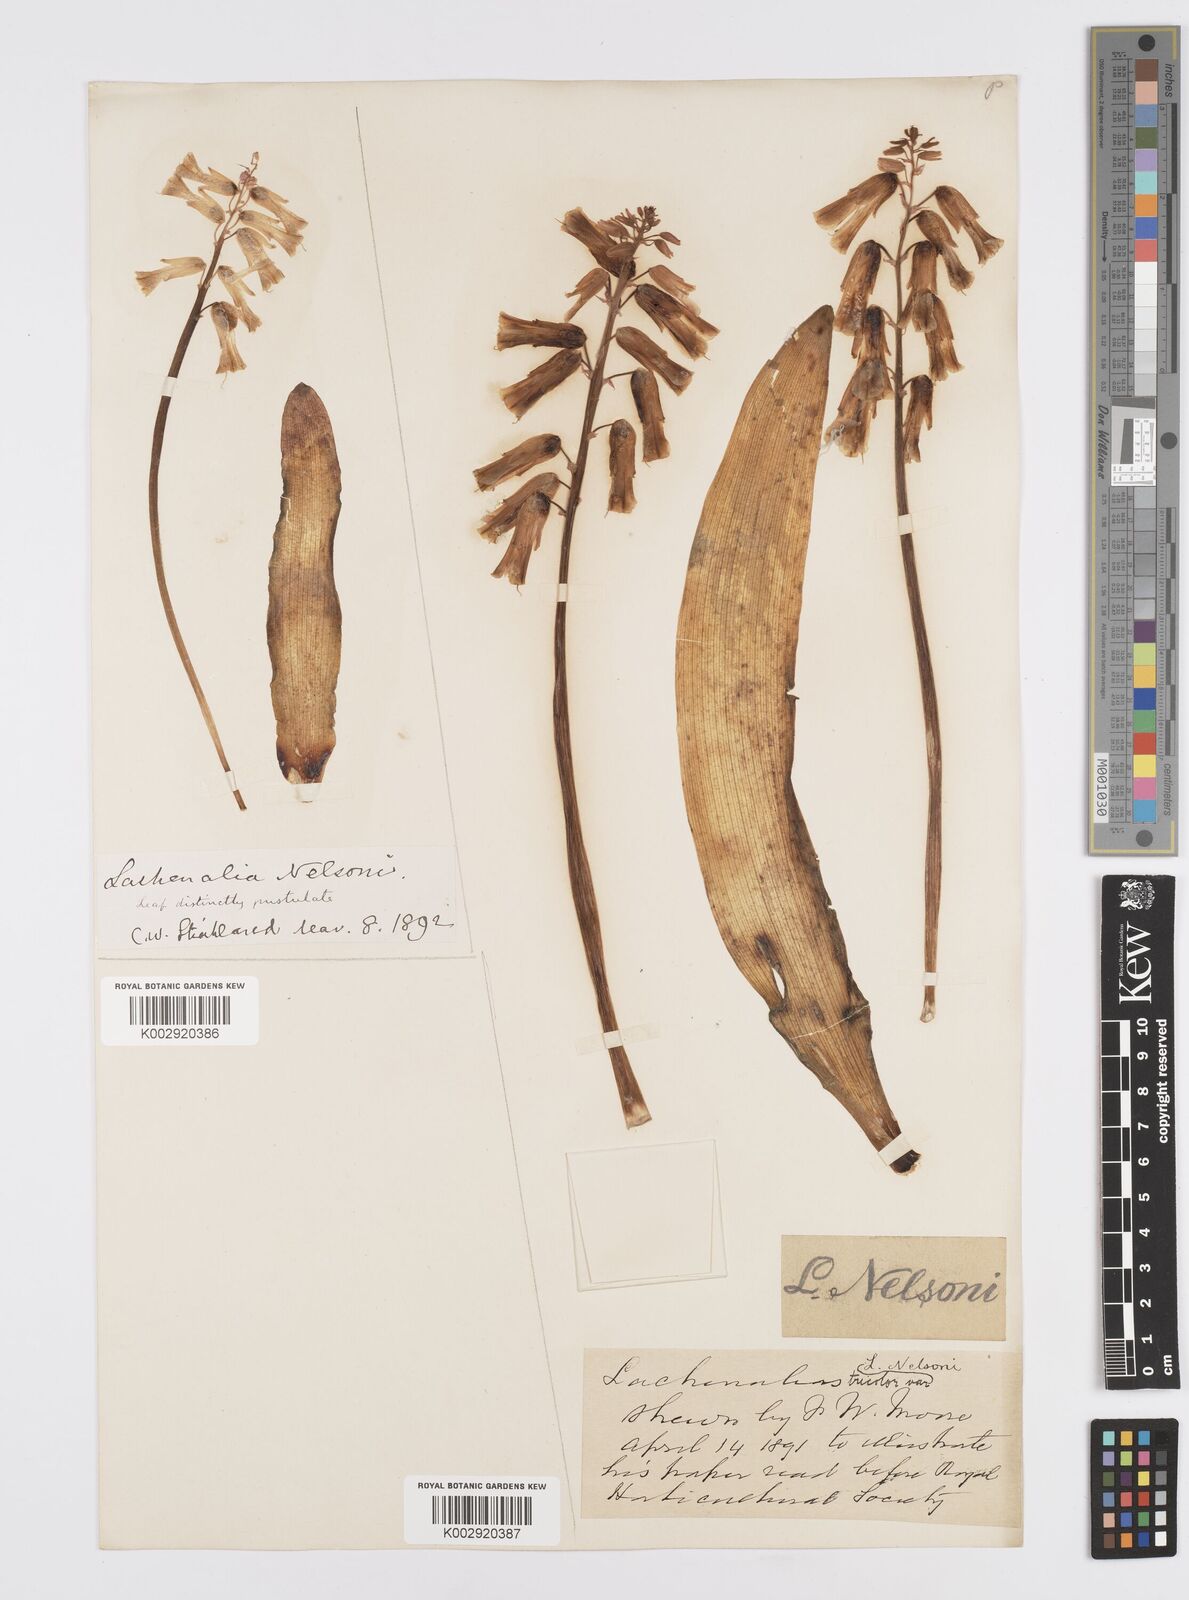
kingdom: Plantae
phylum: Tracheophyta
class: Liliopsida
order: Asparagales
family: Asparagaceae
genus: Lachenalia
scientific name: Lachenalia
